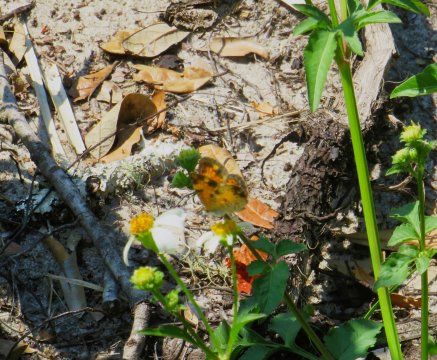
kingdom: Animalia
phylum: Arthropoda
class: Insecta
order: Lepidoptera
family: Nymphalidae
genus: Phyciodes
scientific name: Phyciodes tharos
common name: Pearl Crescent
